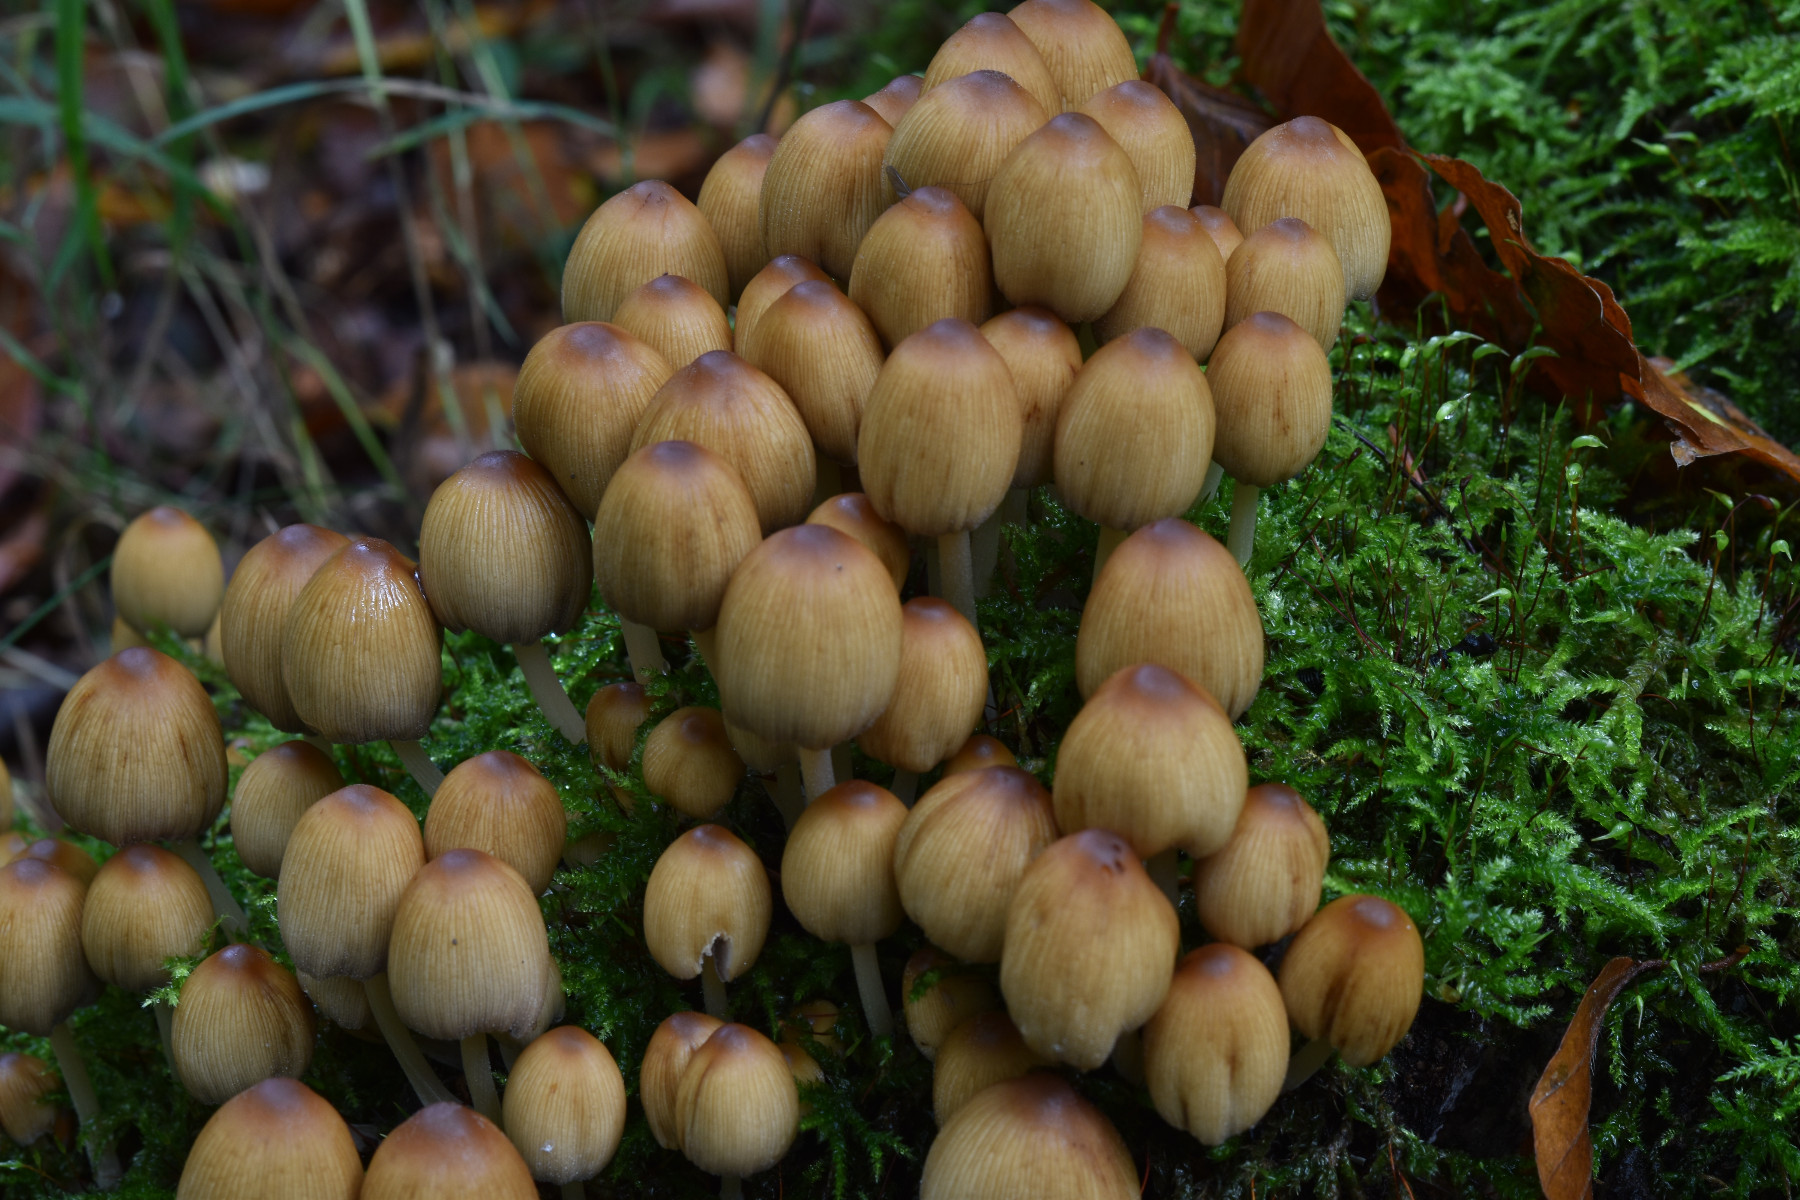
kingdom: Fungi
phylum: Basidiomycota
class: Agaricomycetes
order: Agaricales
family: Psathyrellaceae
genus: Coprinellus
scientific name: Coprinellus micaceus
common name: glimmer-blækhat
